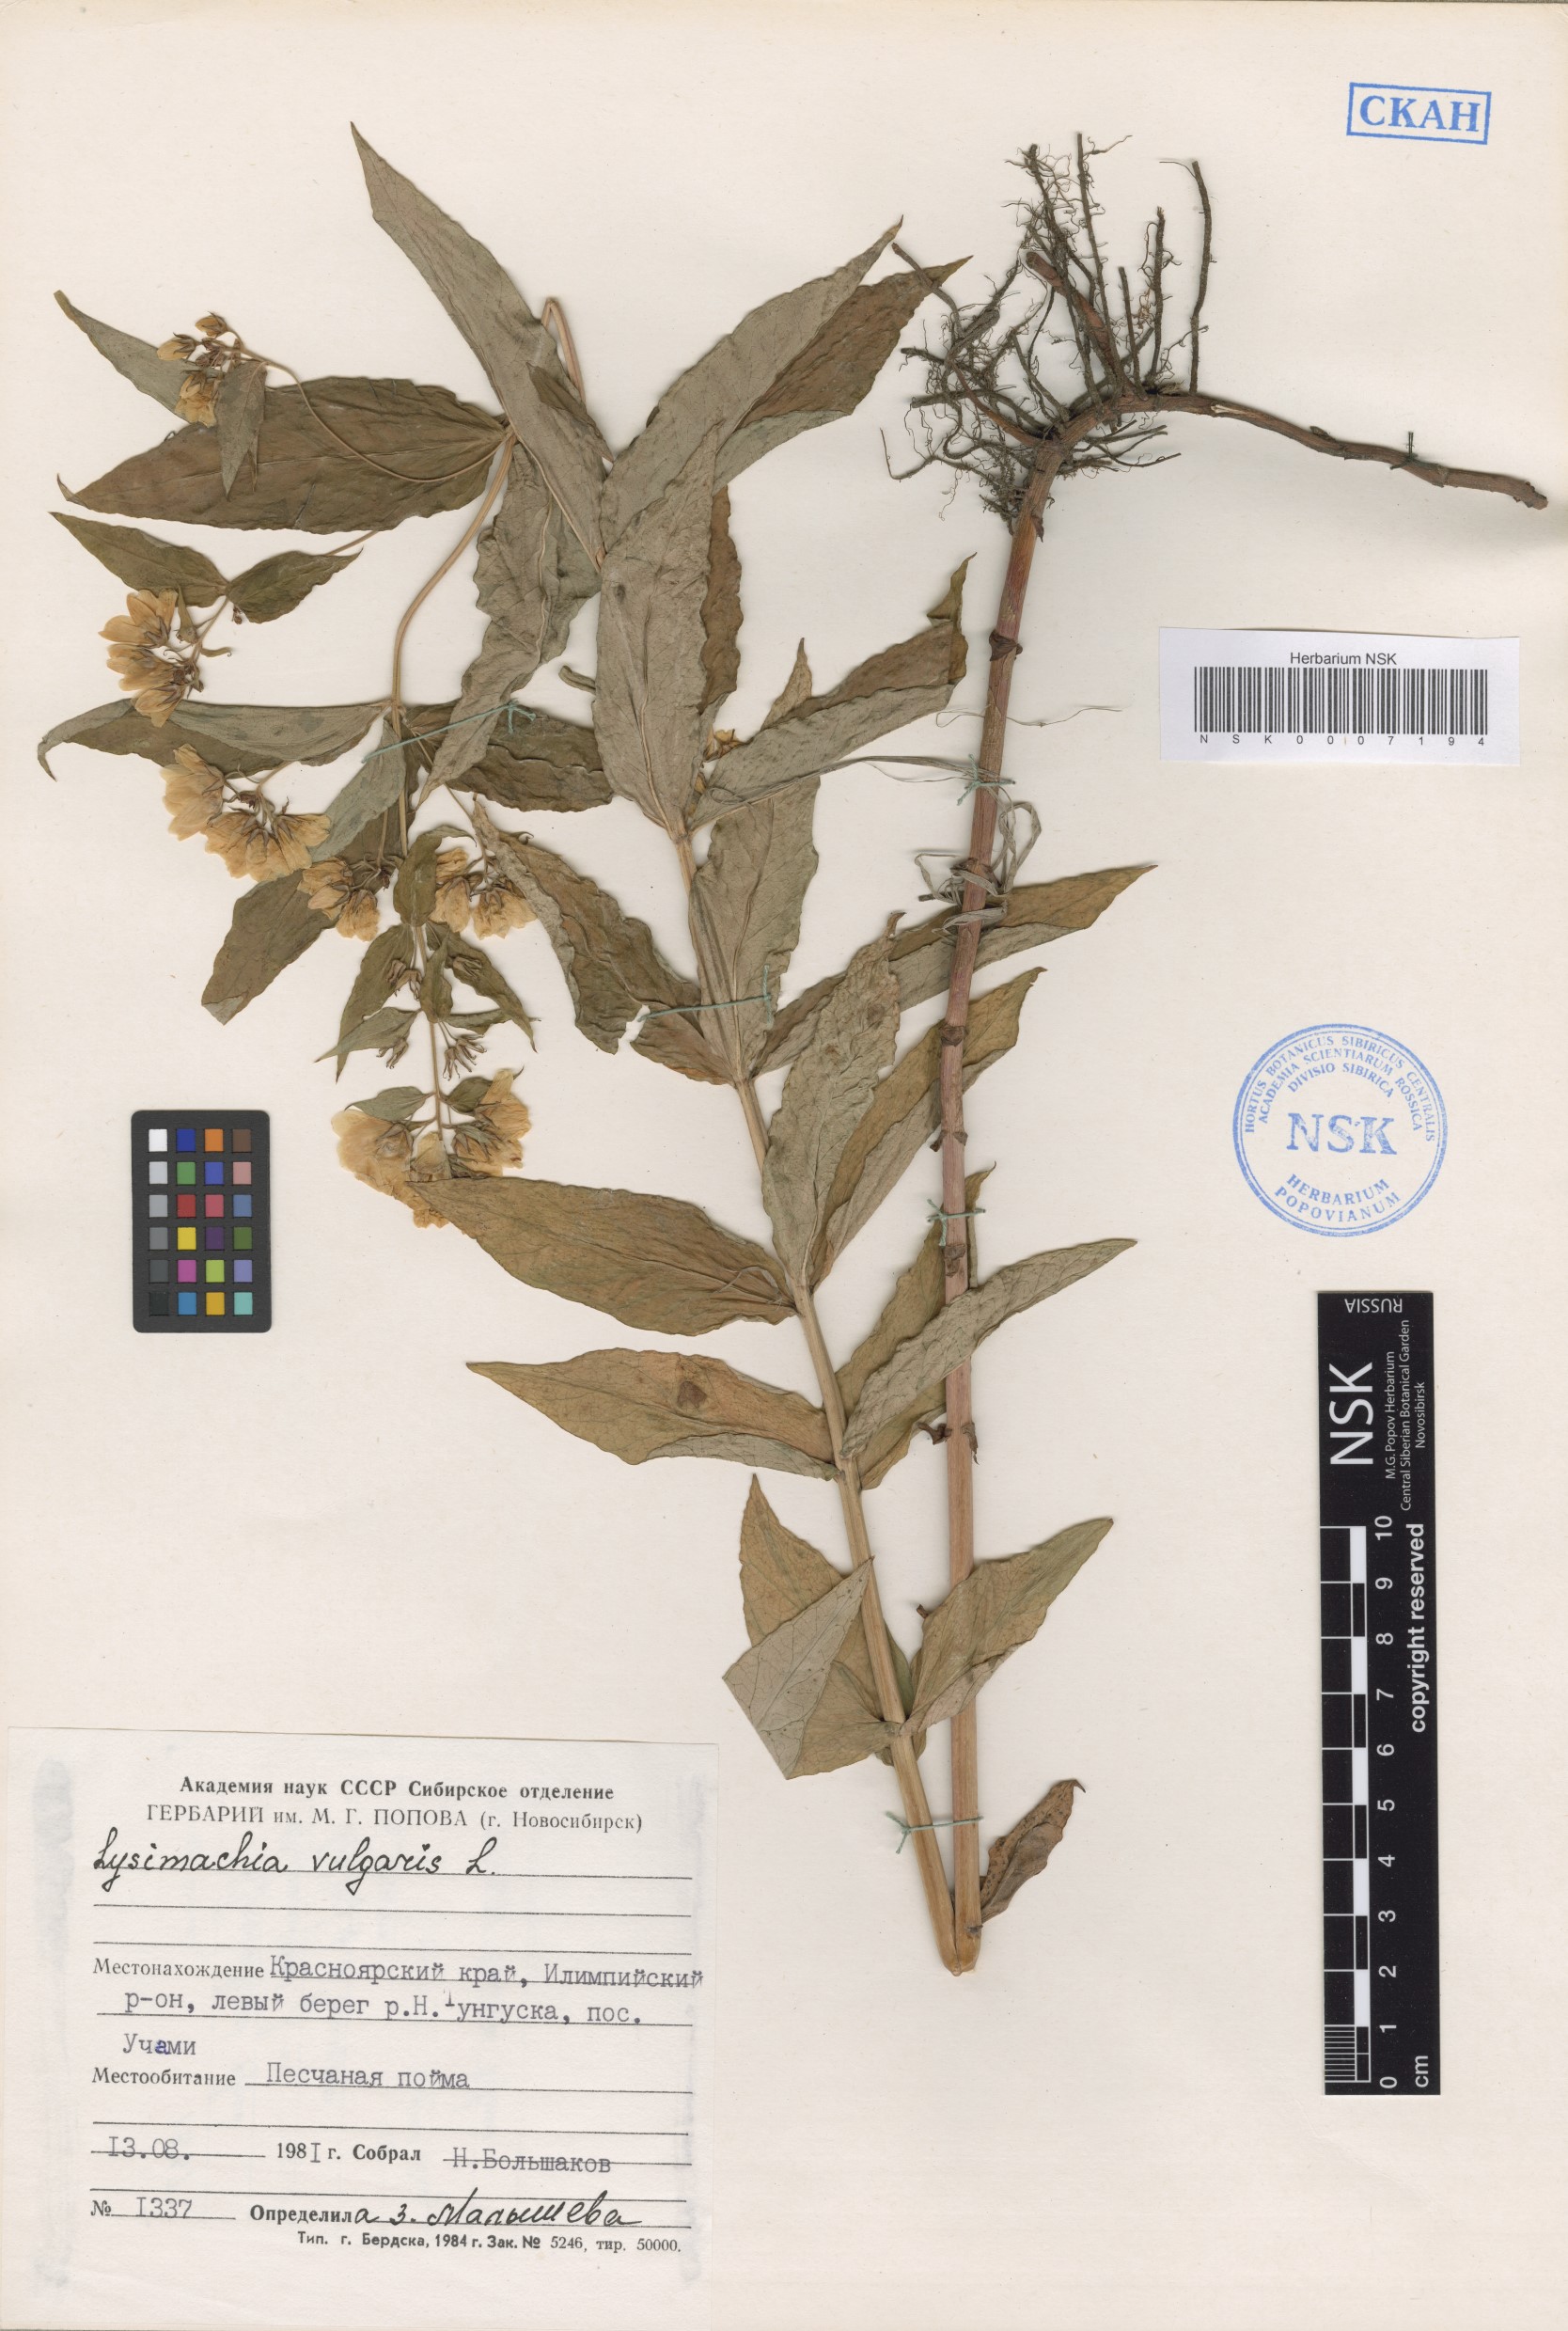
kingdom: Plantae
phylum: Tracheophyta
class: Magnoliopsida
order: Ericales
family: Primulaceae
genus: Lysimachia
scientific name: Lysimachia vulgaris
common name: Yellow loosestrife
